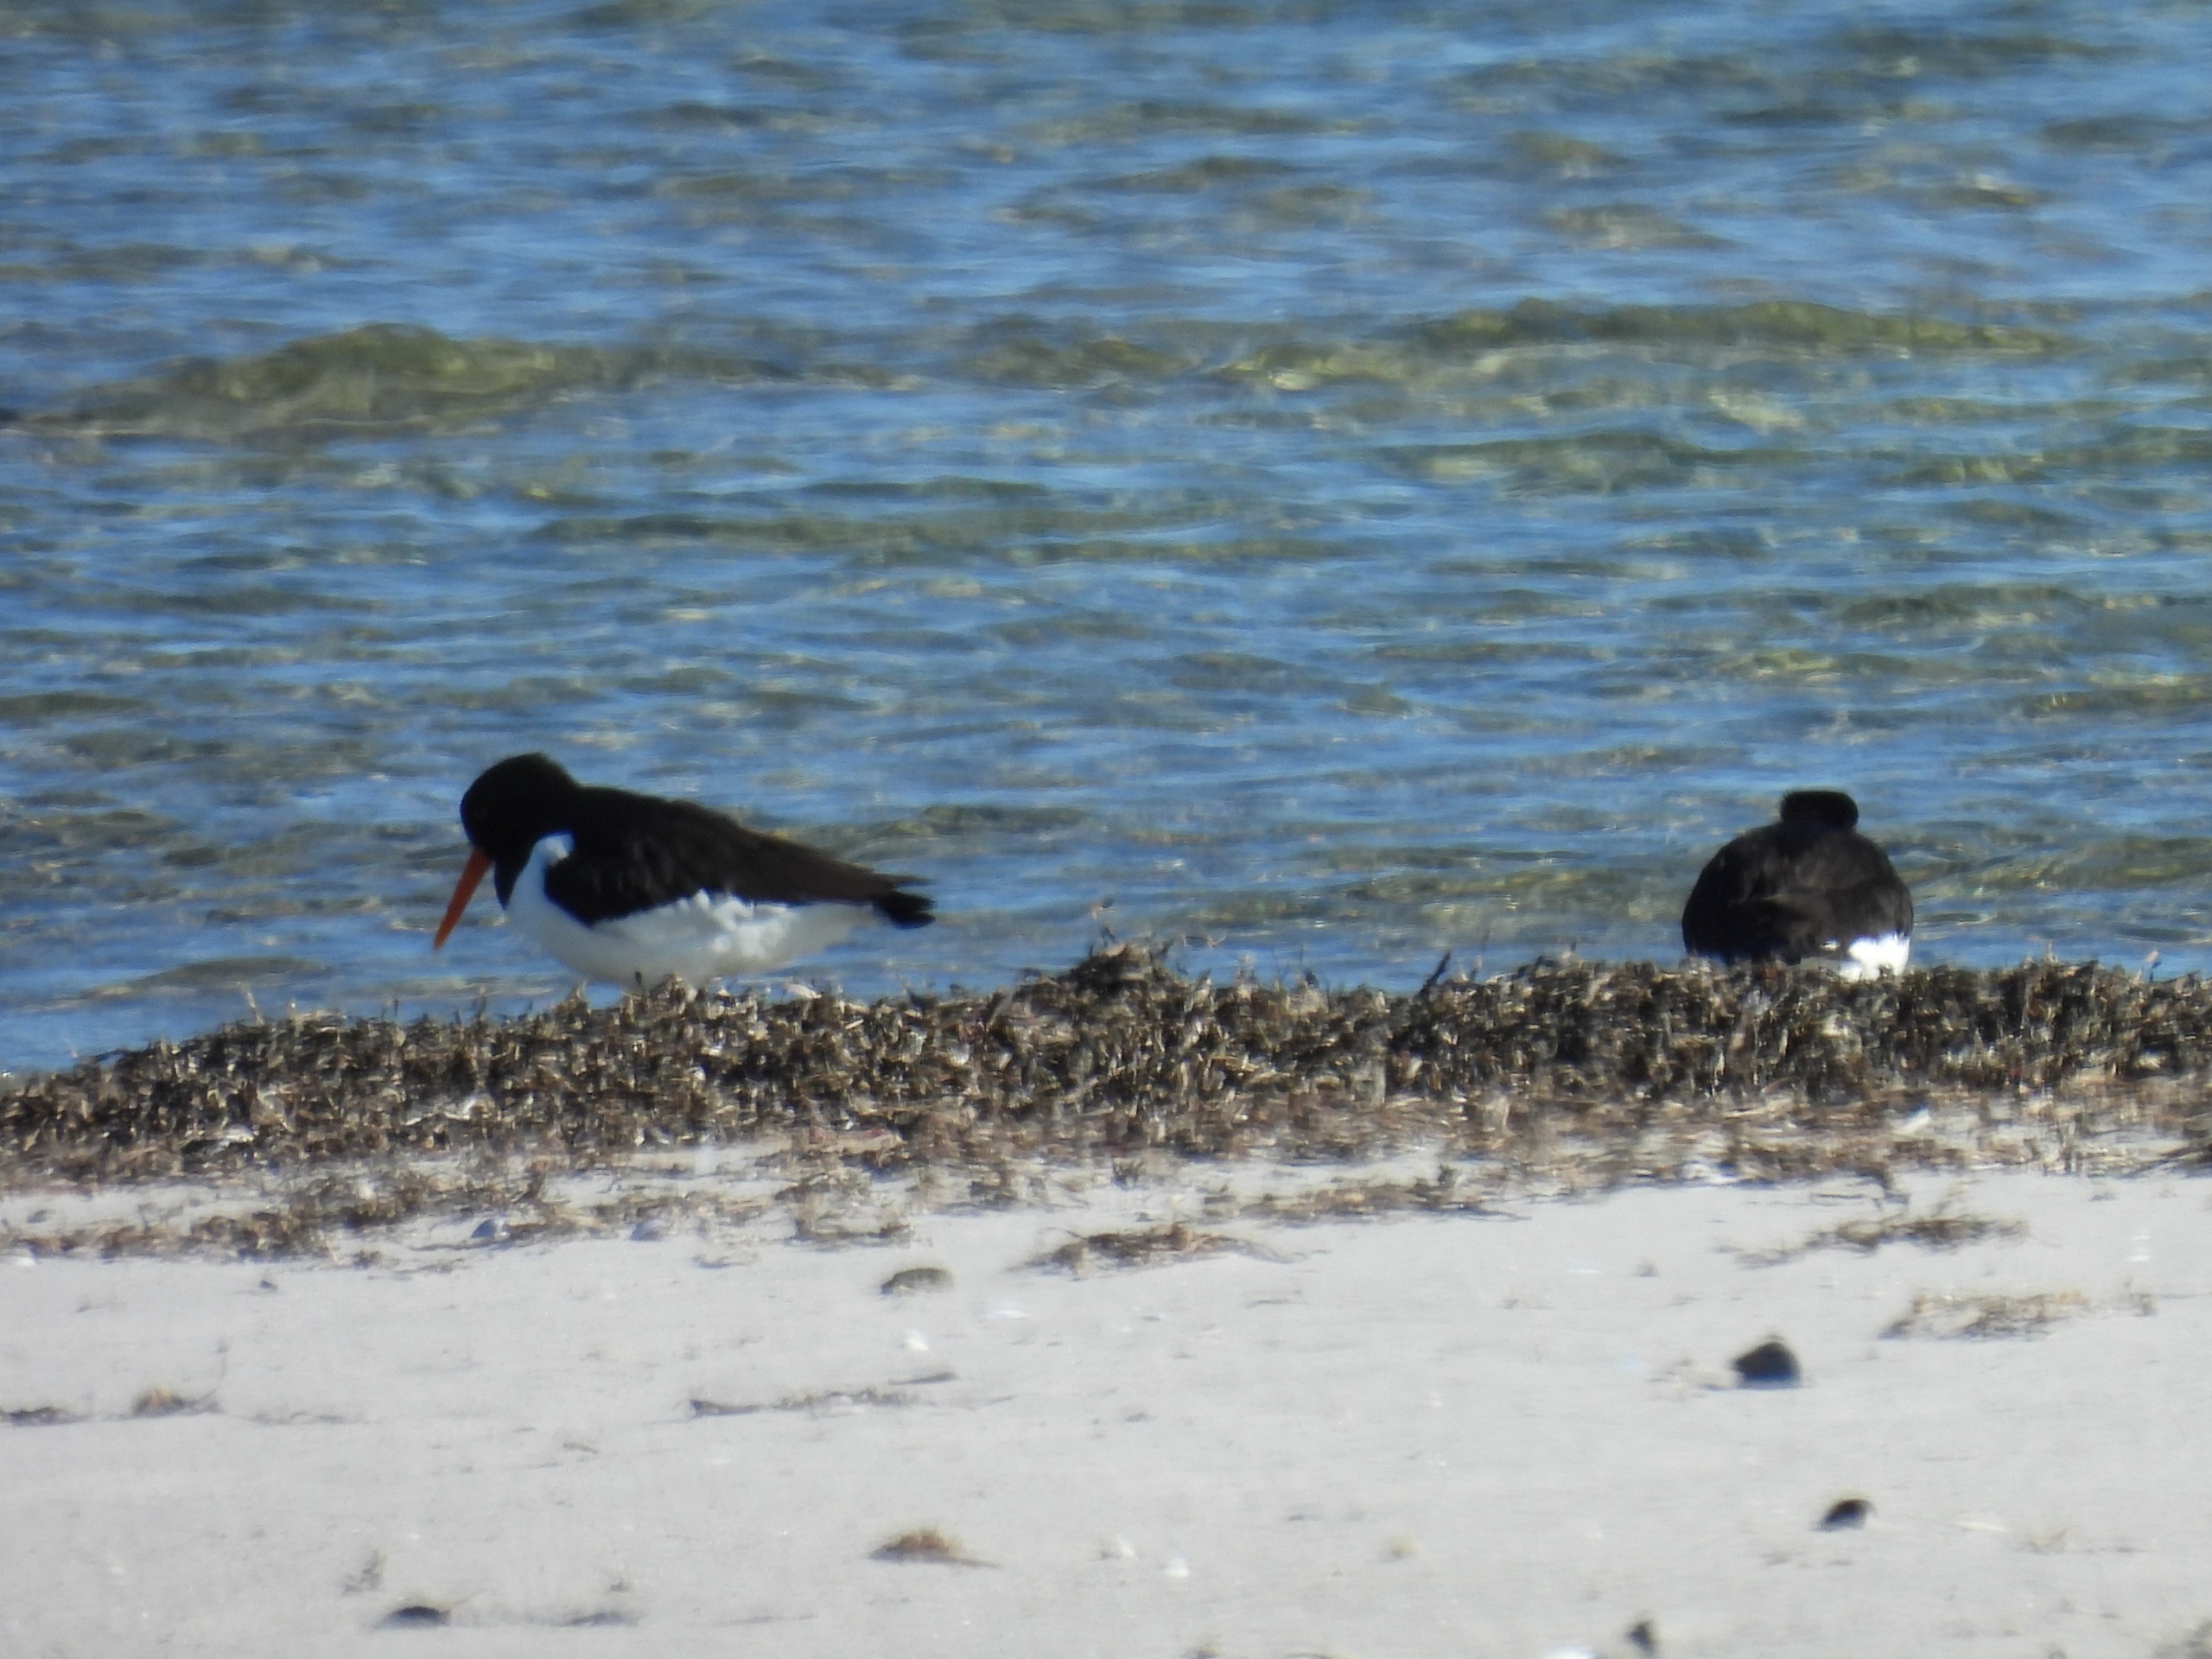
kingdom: Animalia
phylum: Chordata
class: Aves
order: Charadriiformes
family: Haematopodidae
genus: Haematopus
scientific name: Haematopus ostralegus
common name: Strandskade
